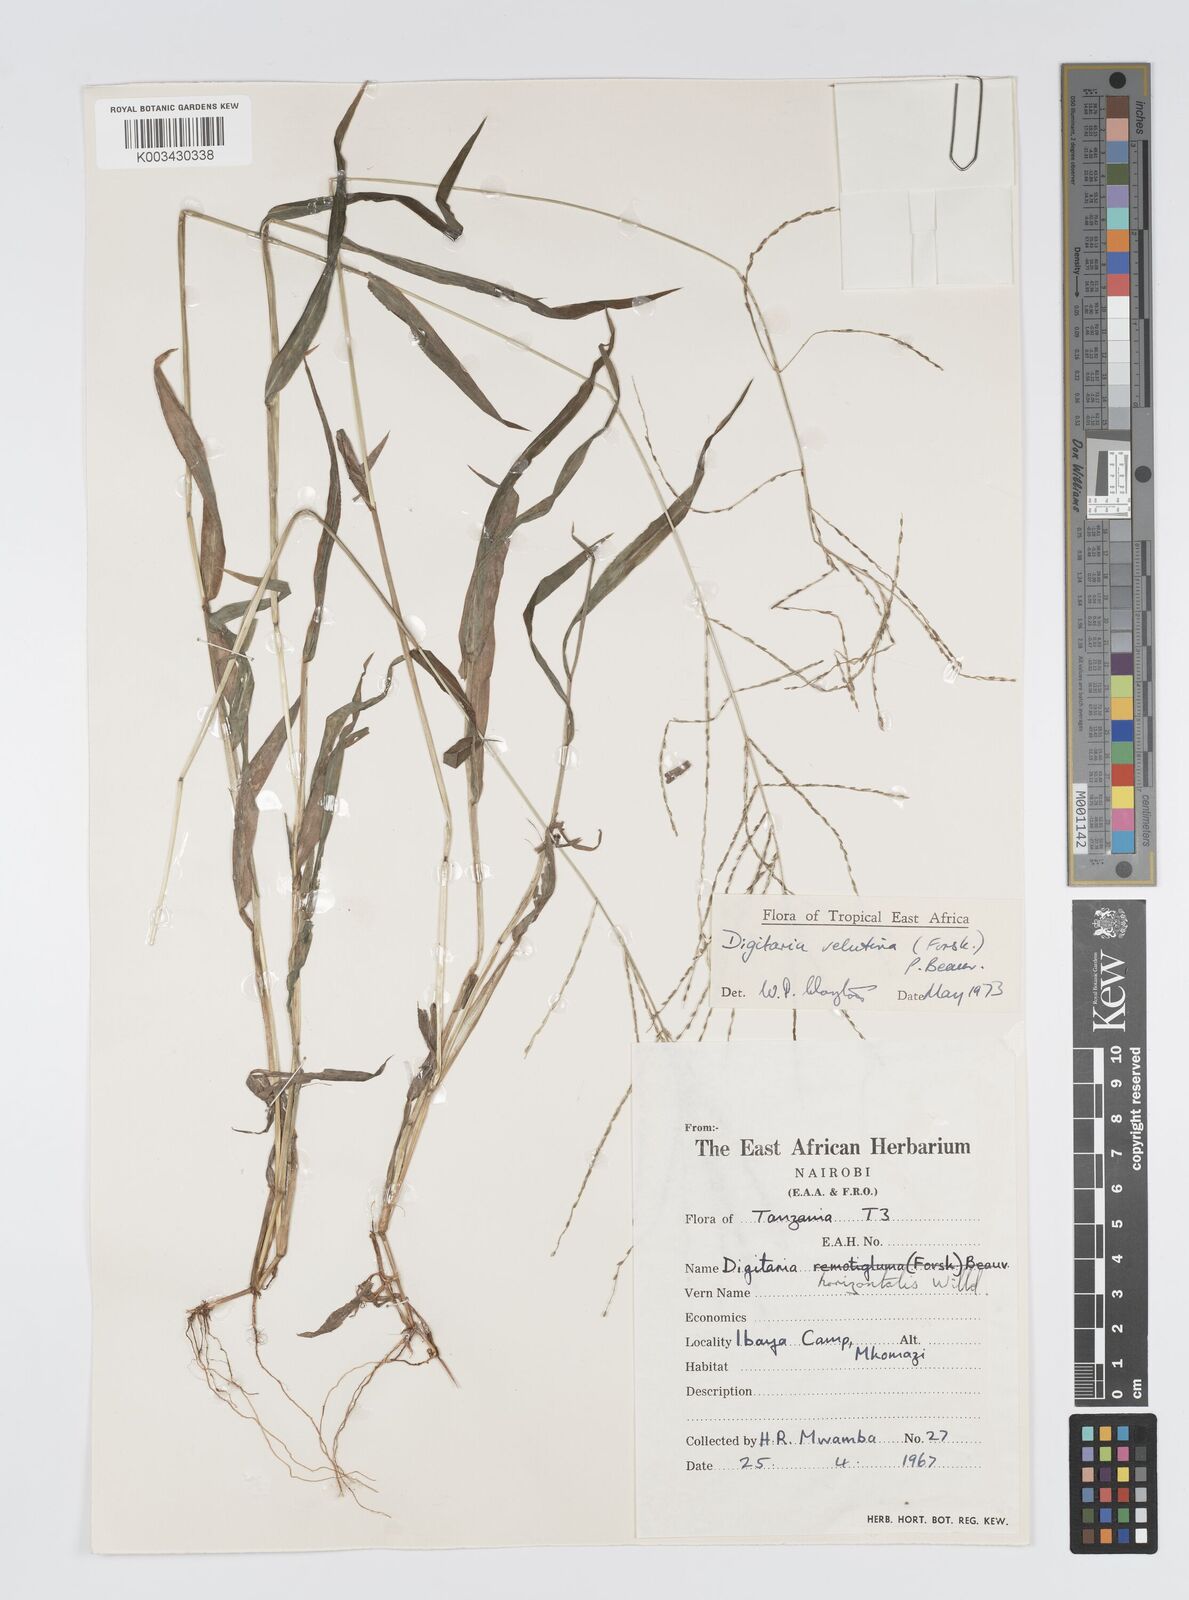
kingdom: Plantae
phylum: Tracheophyta
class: Liliopsida
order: Poales
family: Poaceae
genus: Digitaria
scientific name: Digitaria velutina
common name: Long-plume finger grass
